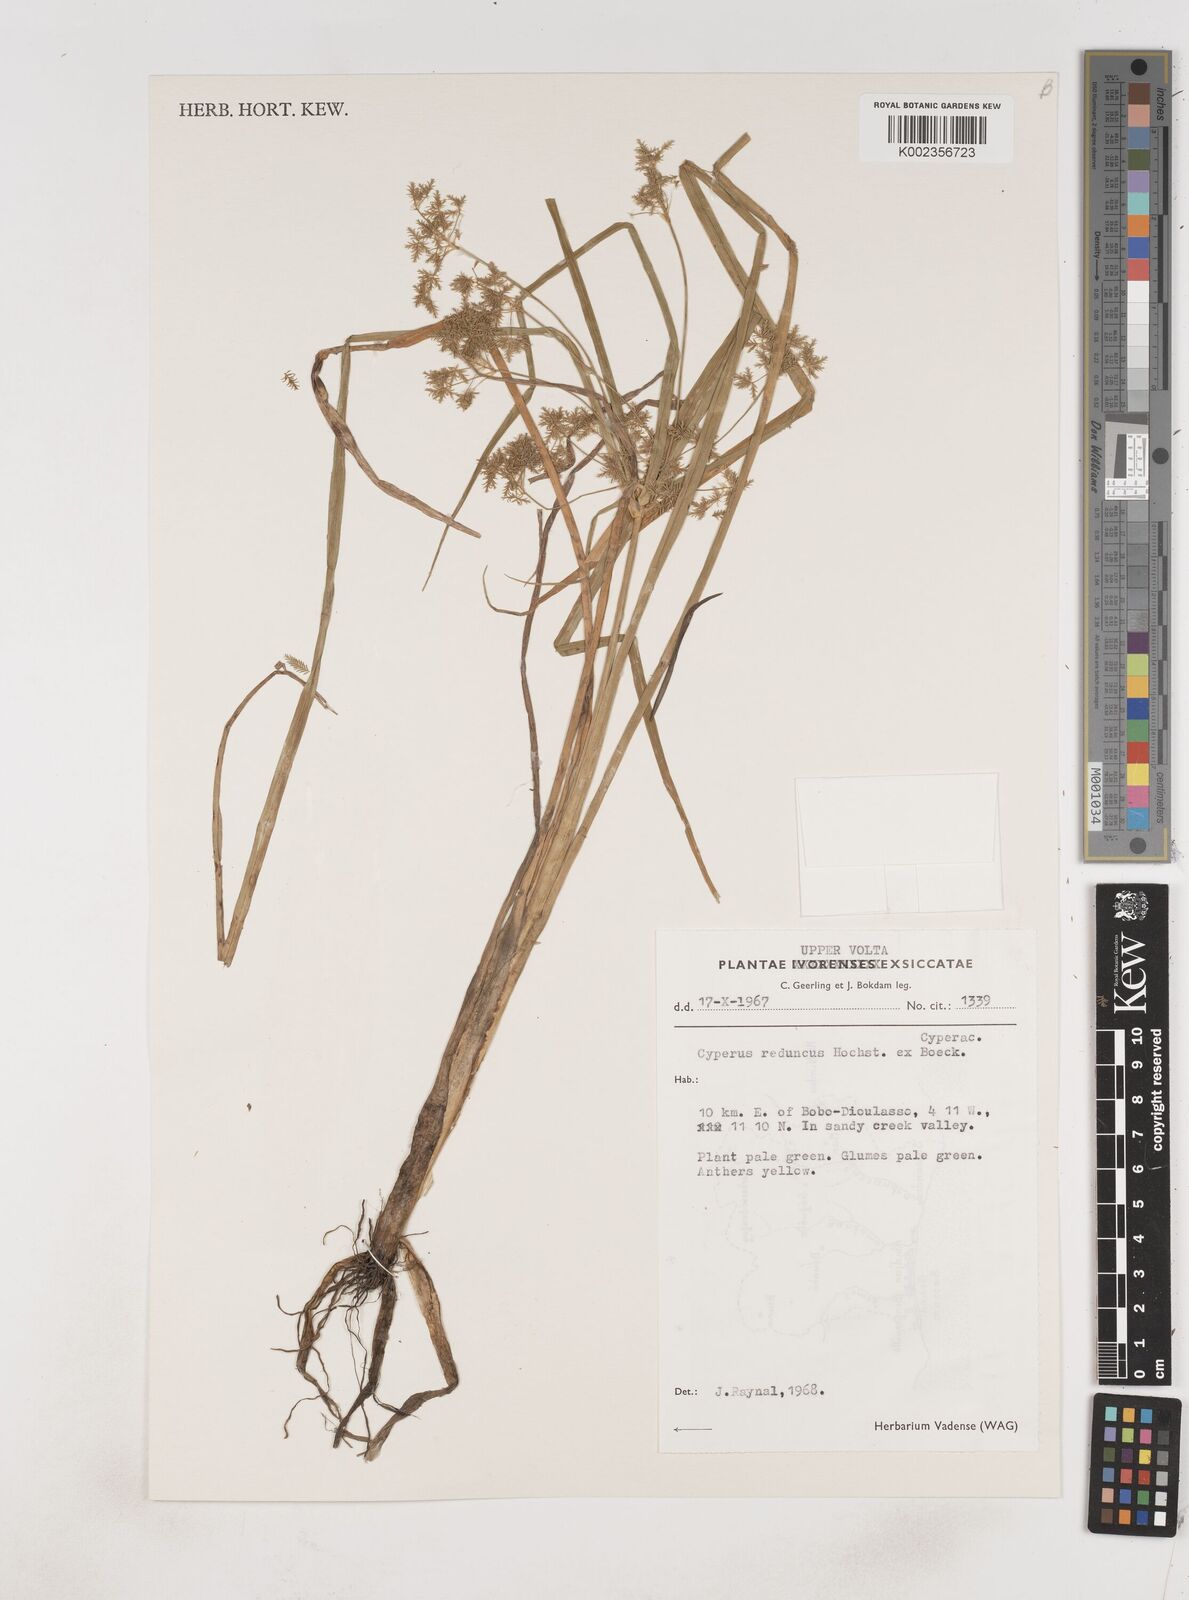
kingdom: Plantae
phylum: Tracheophyta
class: Liliopsida
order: Poales
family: Cyperaceae
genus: Cyperus
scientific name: Cyperus reduncus
